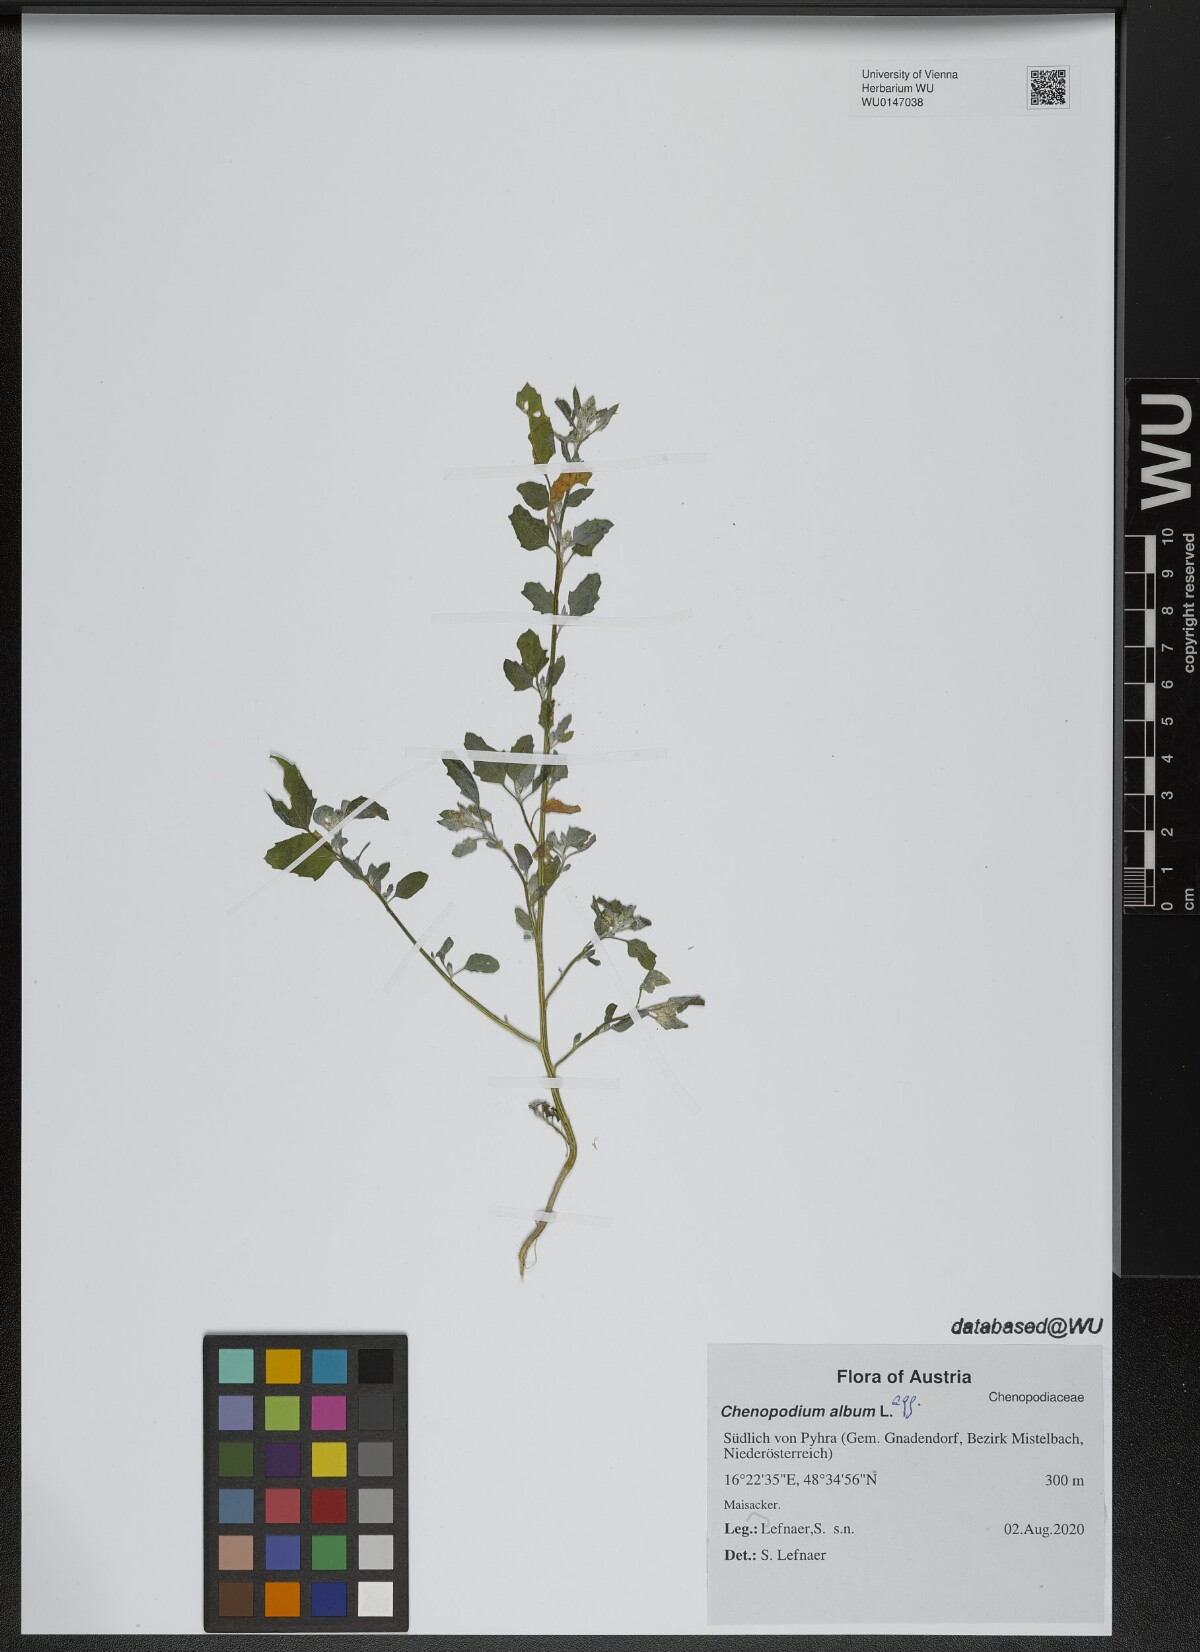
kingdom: Plantae
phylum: Tracheophyta
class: Magnoliopsida
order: Caryophyllales
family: Amaranthaceae
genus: Chenopodium
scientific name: Chenopodium album
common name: Fat-hen
